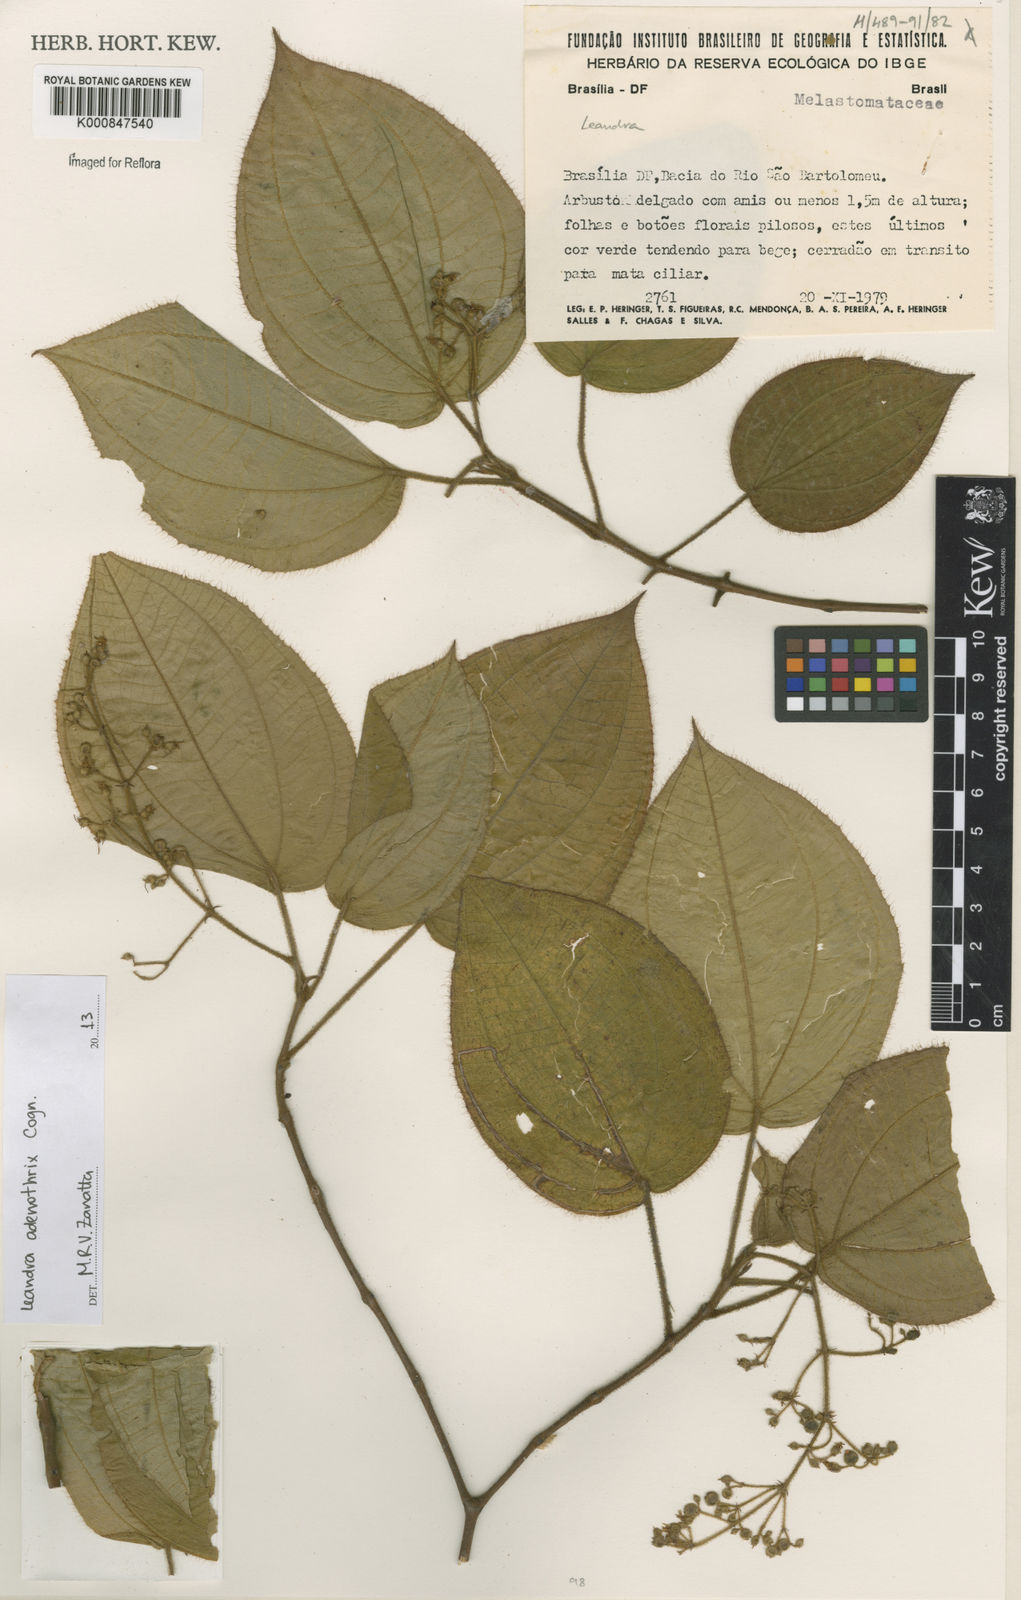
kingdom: Plantae
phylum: Tracheophyta
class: Magnoliopsida
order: Myrtales
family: Melastomataceae
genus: Miconia
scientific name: Miconia adenothrix
